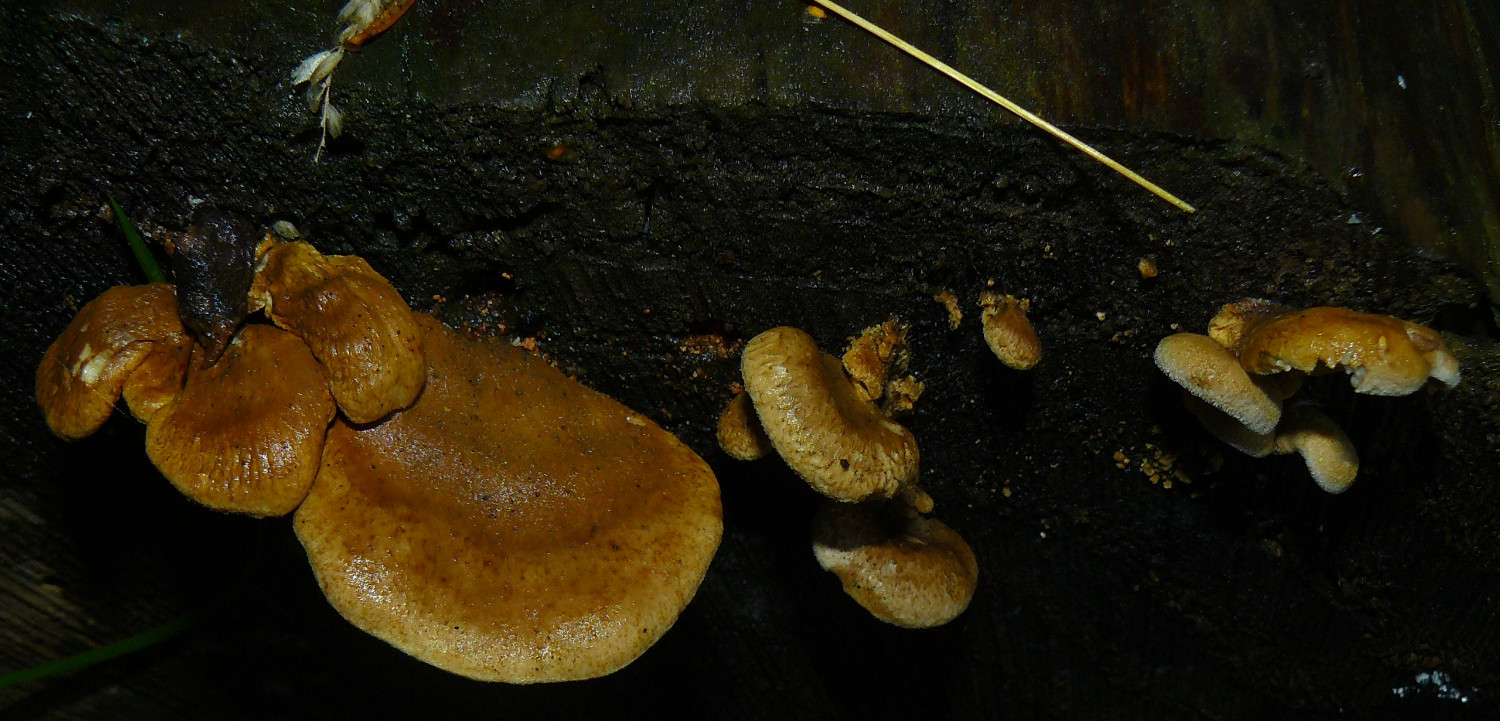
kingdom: Fungi
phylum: Basidiomycota
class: Agaricomycetes
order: Boletales
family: Tapinellaceae
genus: Tapinella
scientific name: Tapinella panuoides
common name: tømmer-viftesvamp
